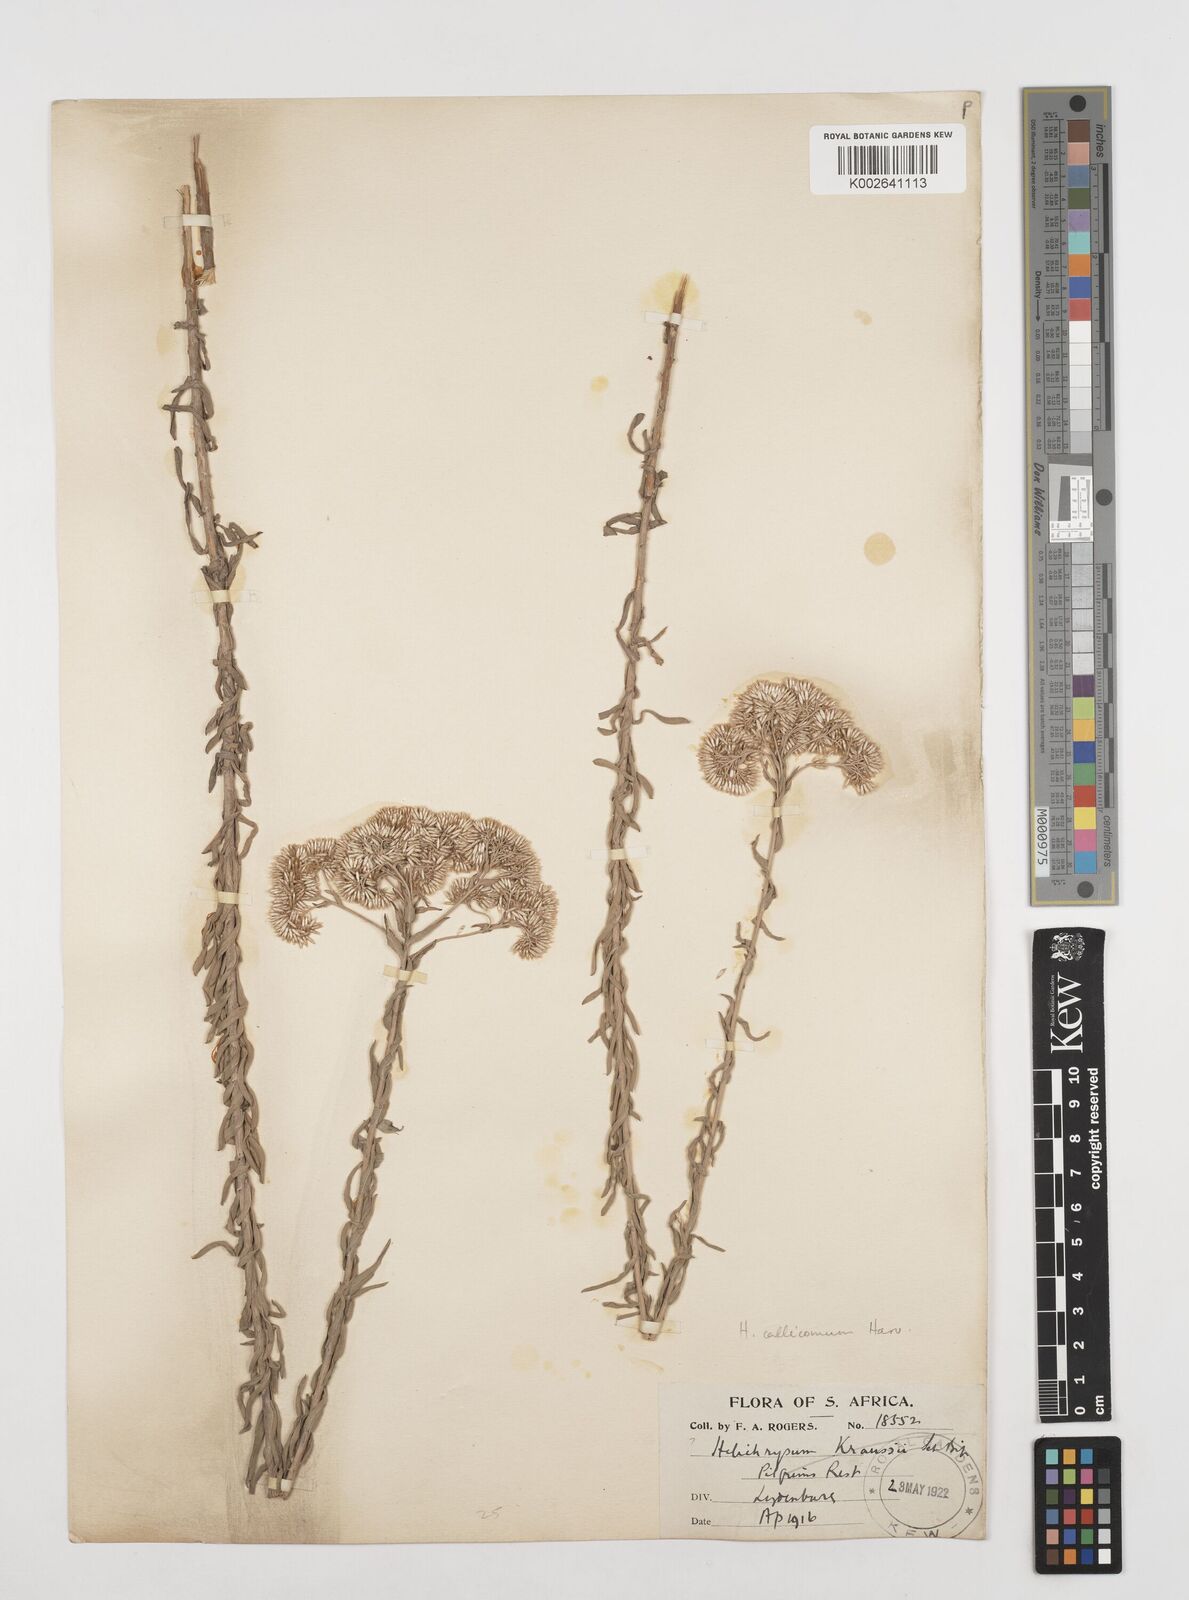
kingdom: Plantae
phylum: Tracheophyta
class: Magnoliopsida
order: Asterales
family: Asteraceae
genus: Helichrysum
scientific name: Helichrysum callicomum
